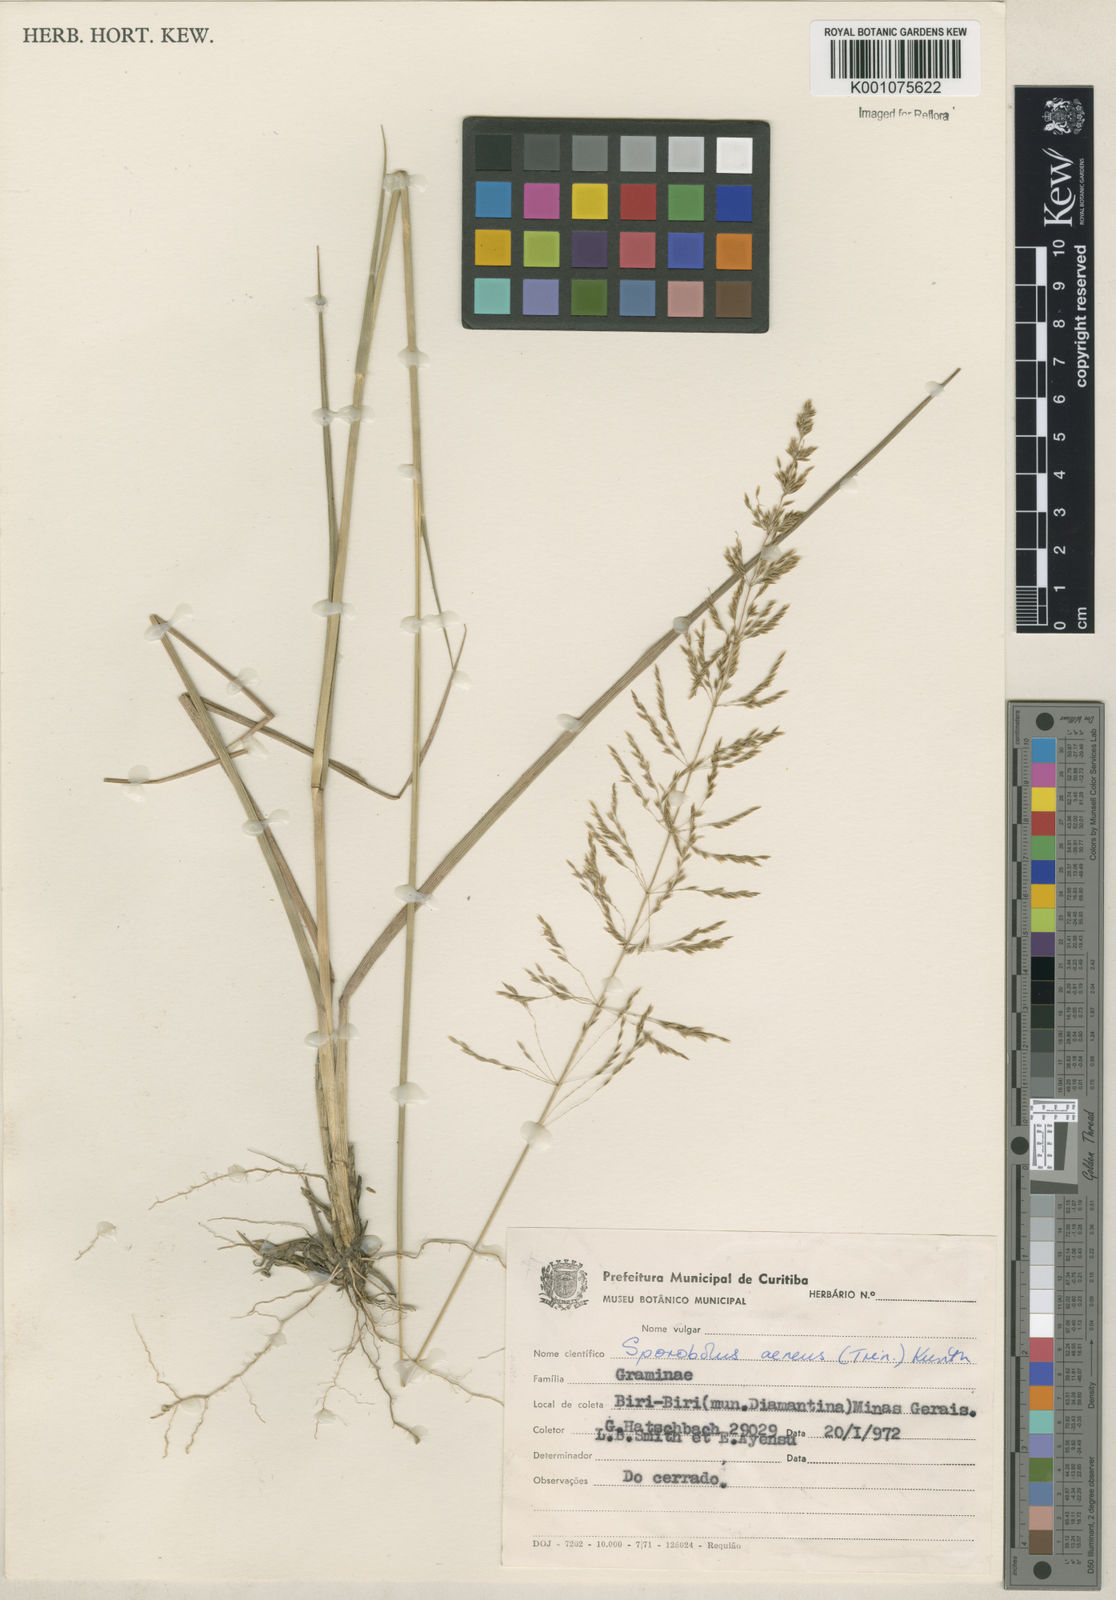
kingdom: Plantae
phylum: Tracheophyta
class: Liliopsida
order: Poales
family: Poaceae
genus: Sporobolus
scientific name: Sporobolus camporum
